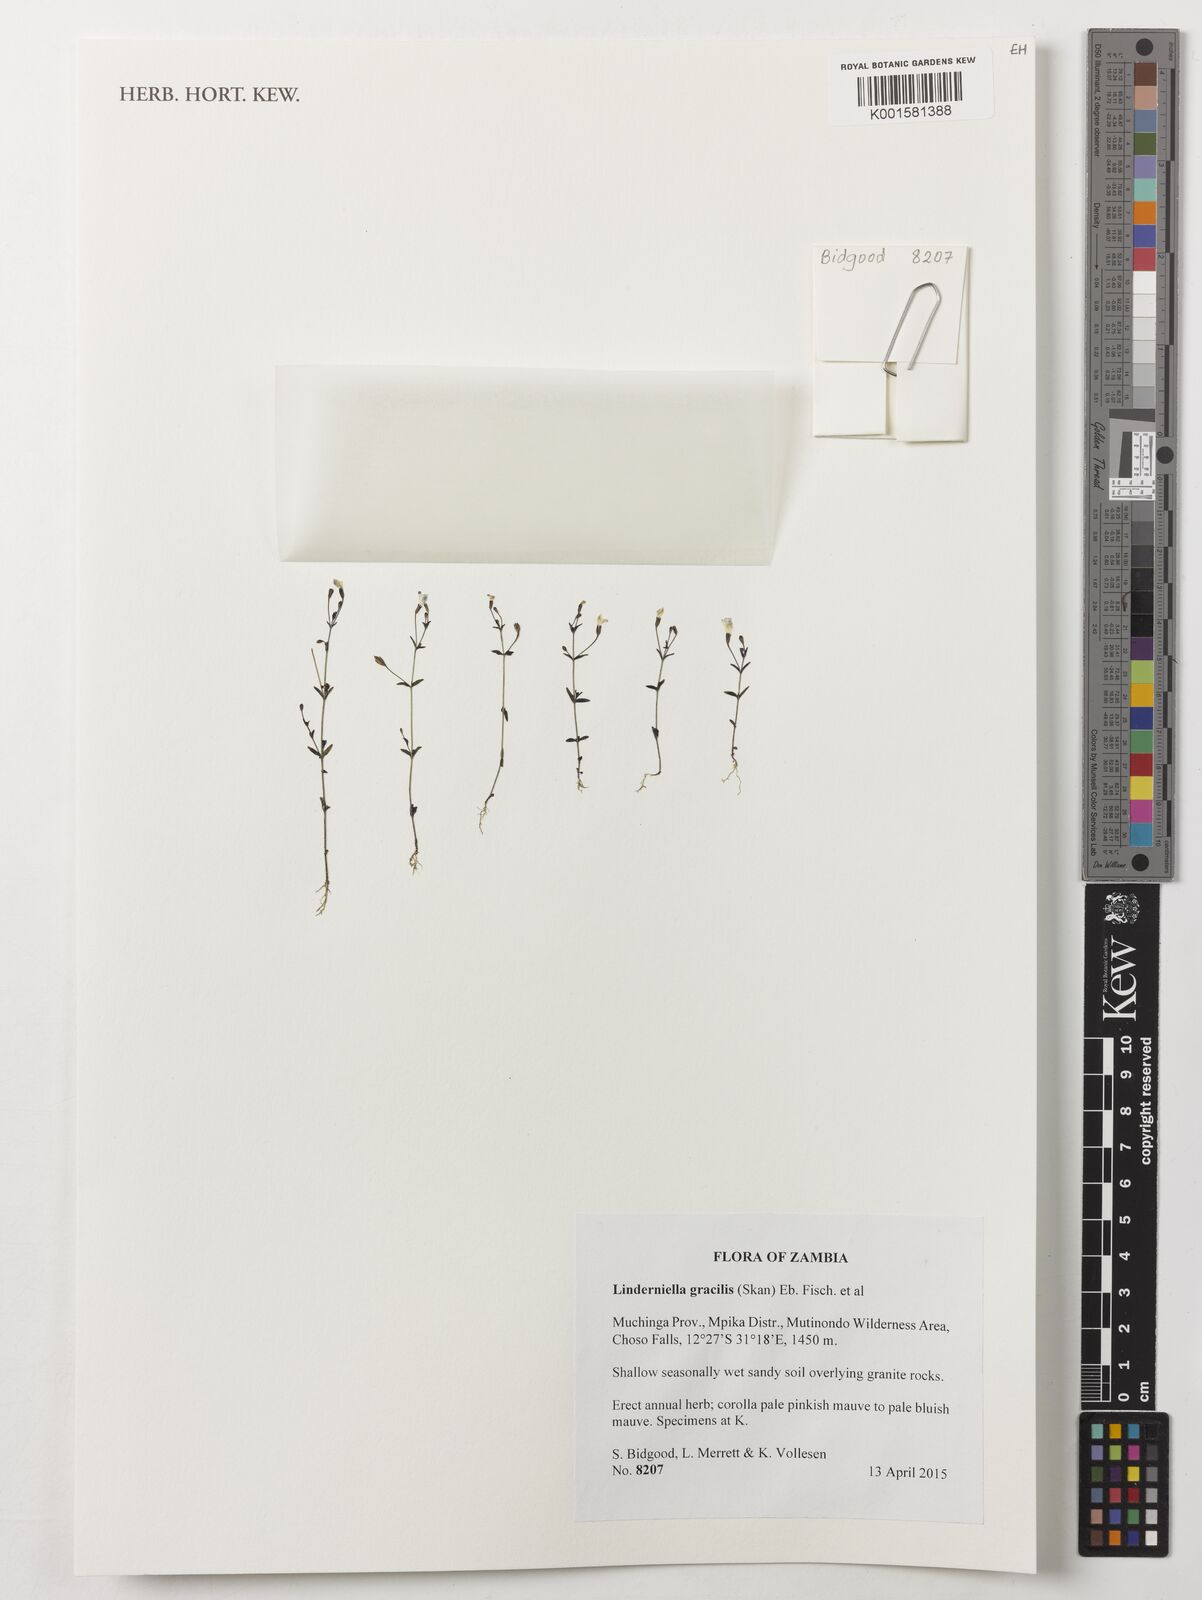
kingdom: Plantae
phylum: Tracheophyta
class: Magnoliopsida
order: Lamiales
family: Linderniaceae
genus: Linderniella
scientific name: Linderniella gracilis
